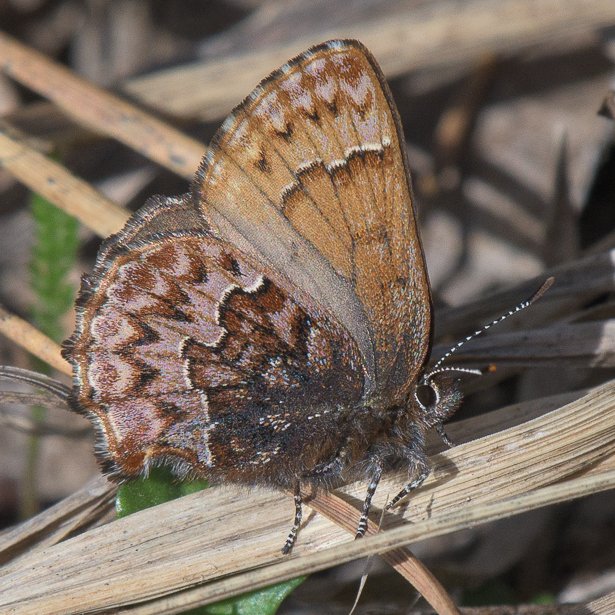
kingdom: Animalia
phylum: Arthropoda
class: Insecta
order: Lepidoptera
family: Lycaenidae
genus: Incisalia
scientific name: Incisalia eryphon
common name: Western Pine Elfin
